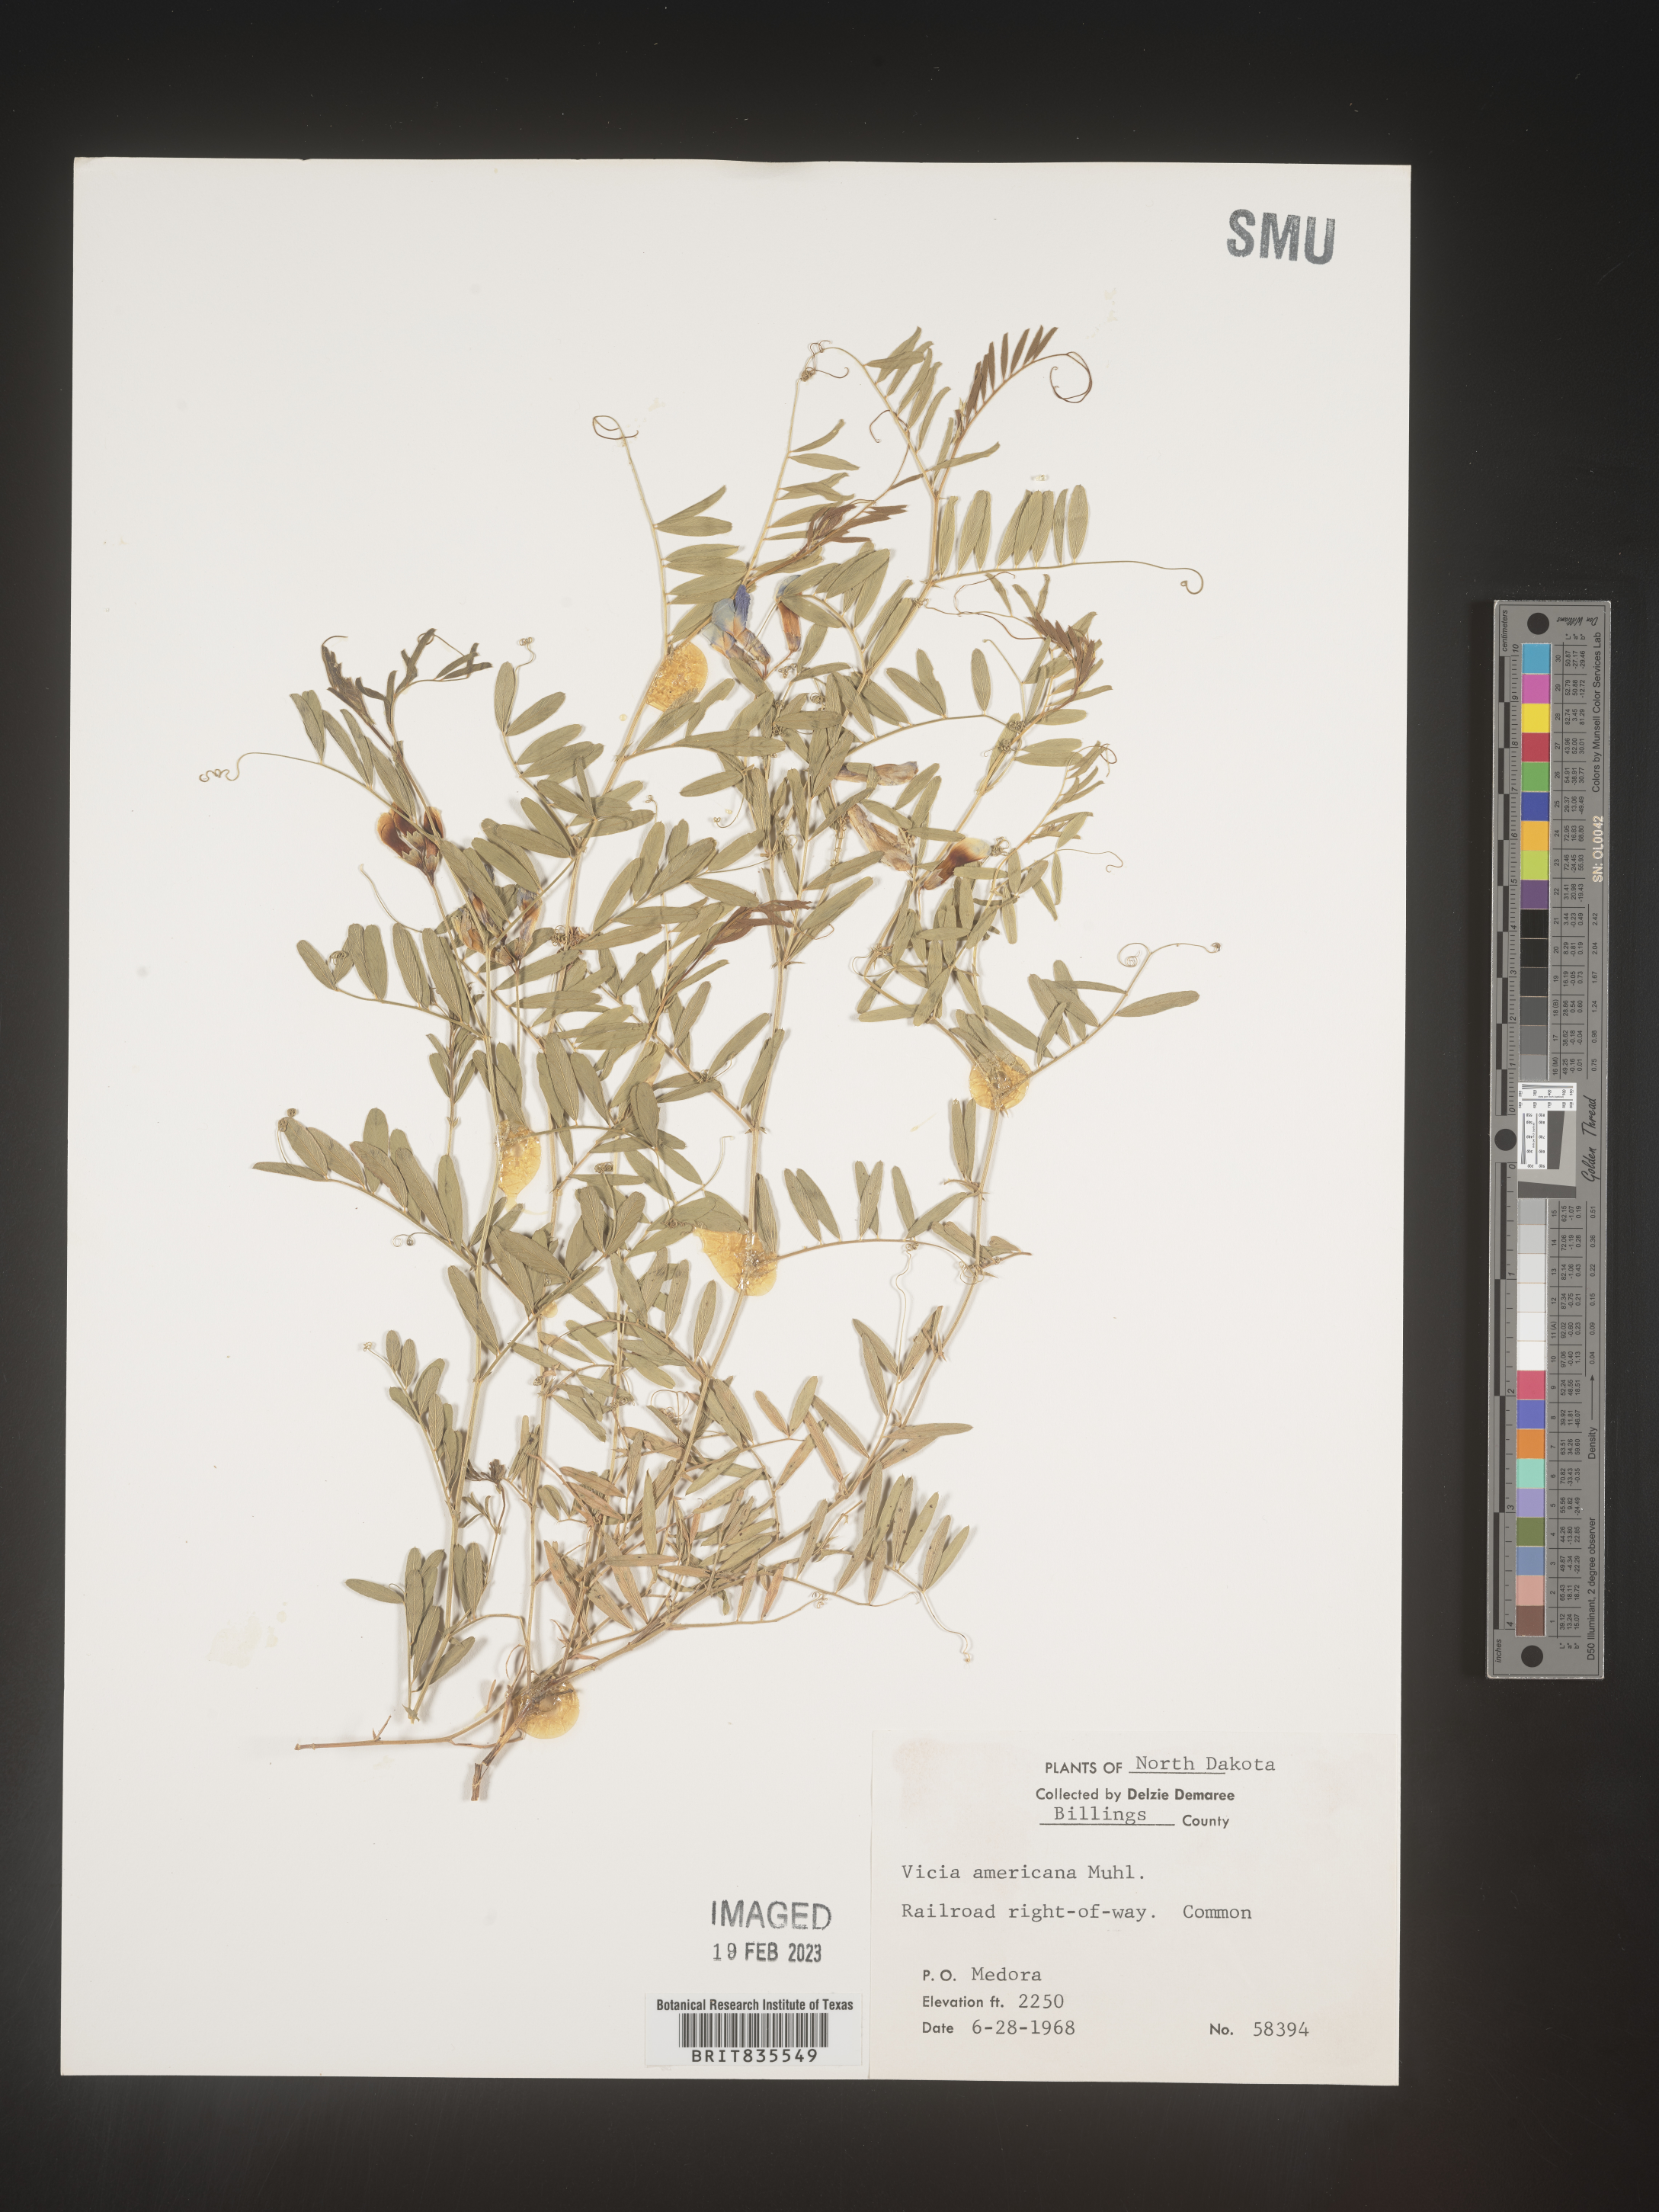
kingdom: Plantae
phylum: Tracheophyta
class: Magnoliopsida
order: Fabales
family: Fabaceae
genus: Vicia
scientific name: Vicia americana
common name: American vetch
